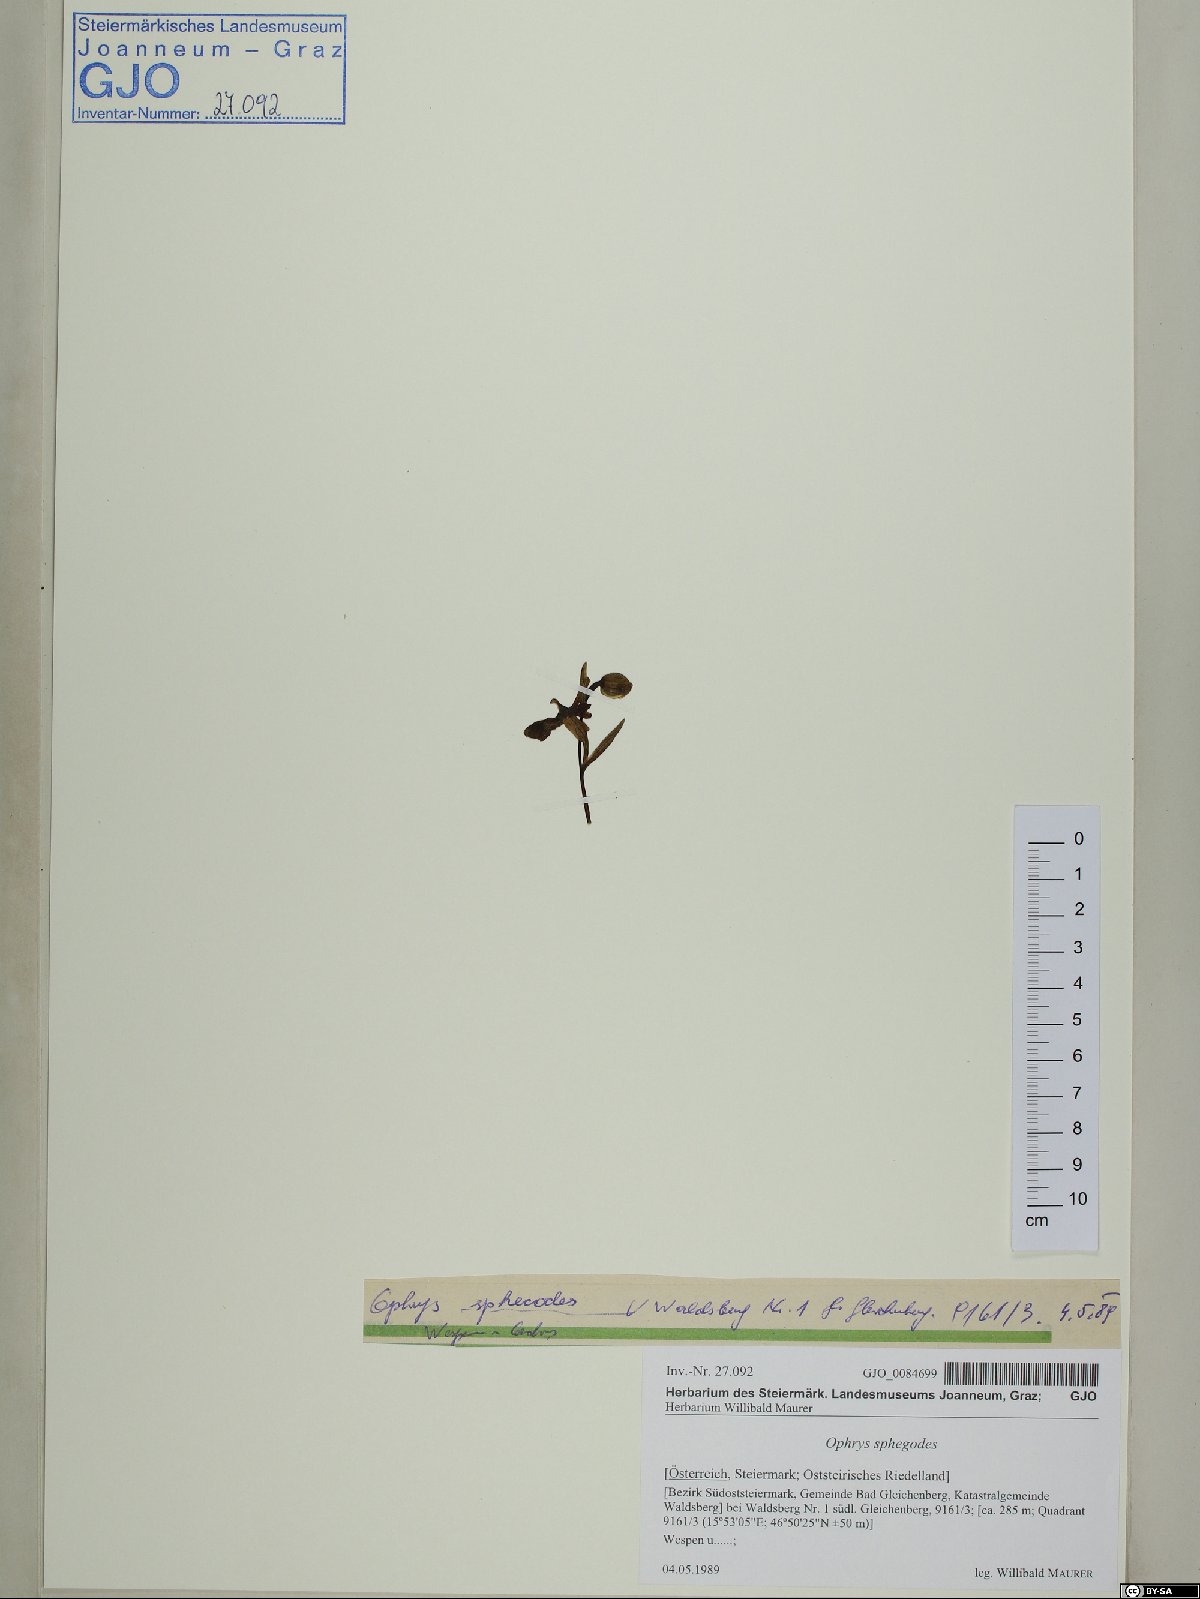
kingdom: Plantae
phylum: Tracheophyta
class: Liliopsida
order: Asparagales
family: Orchidaceae
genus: Ophrys
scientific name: Ophrys sphegodes
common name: Early spider-orchid
